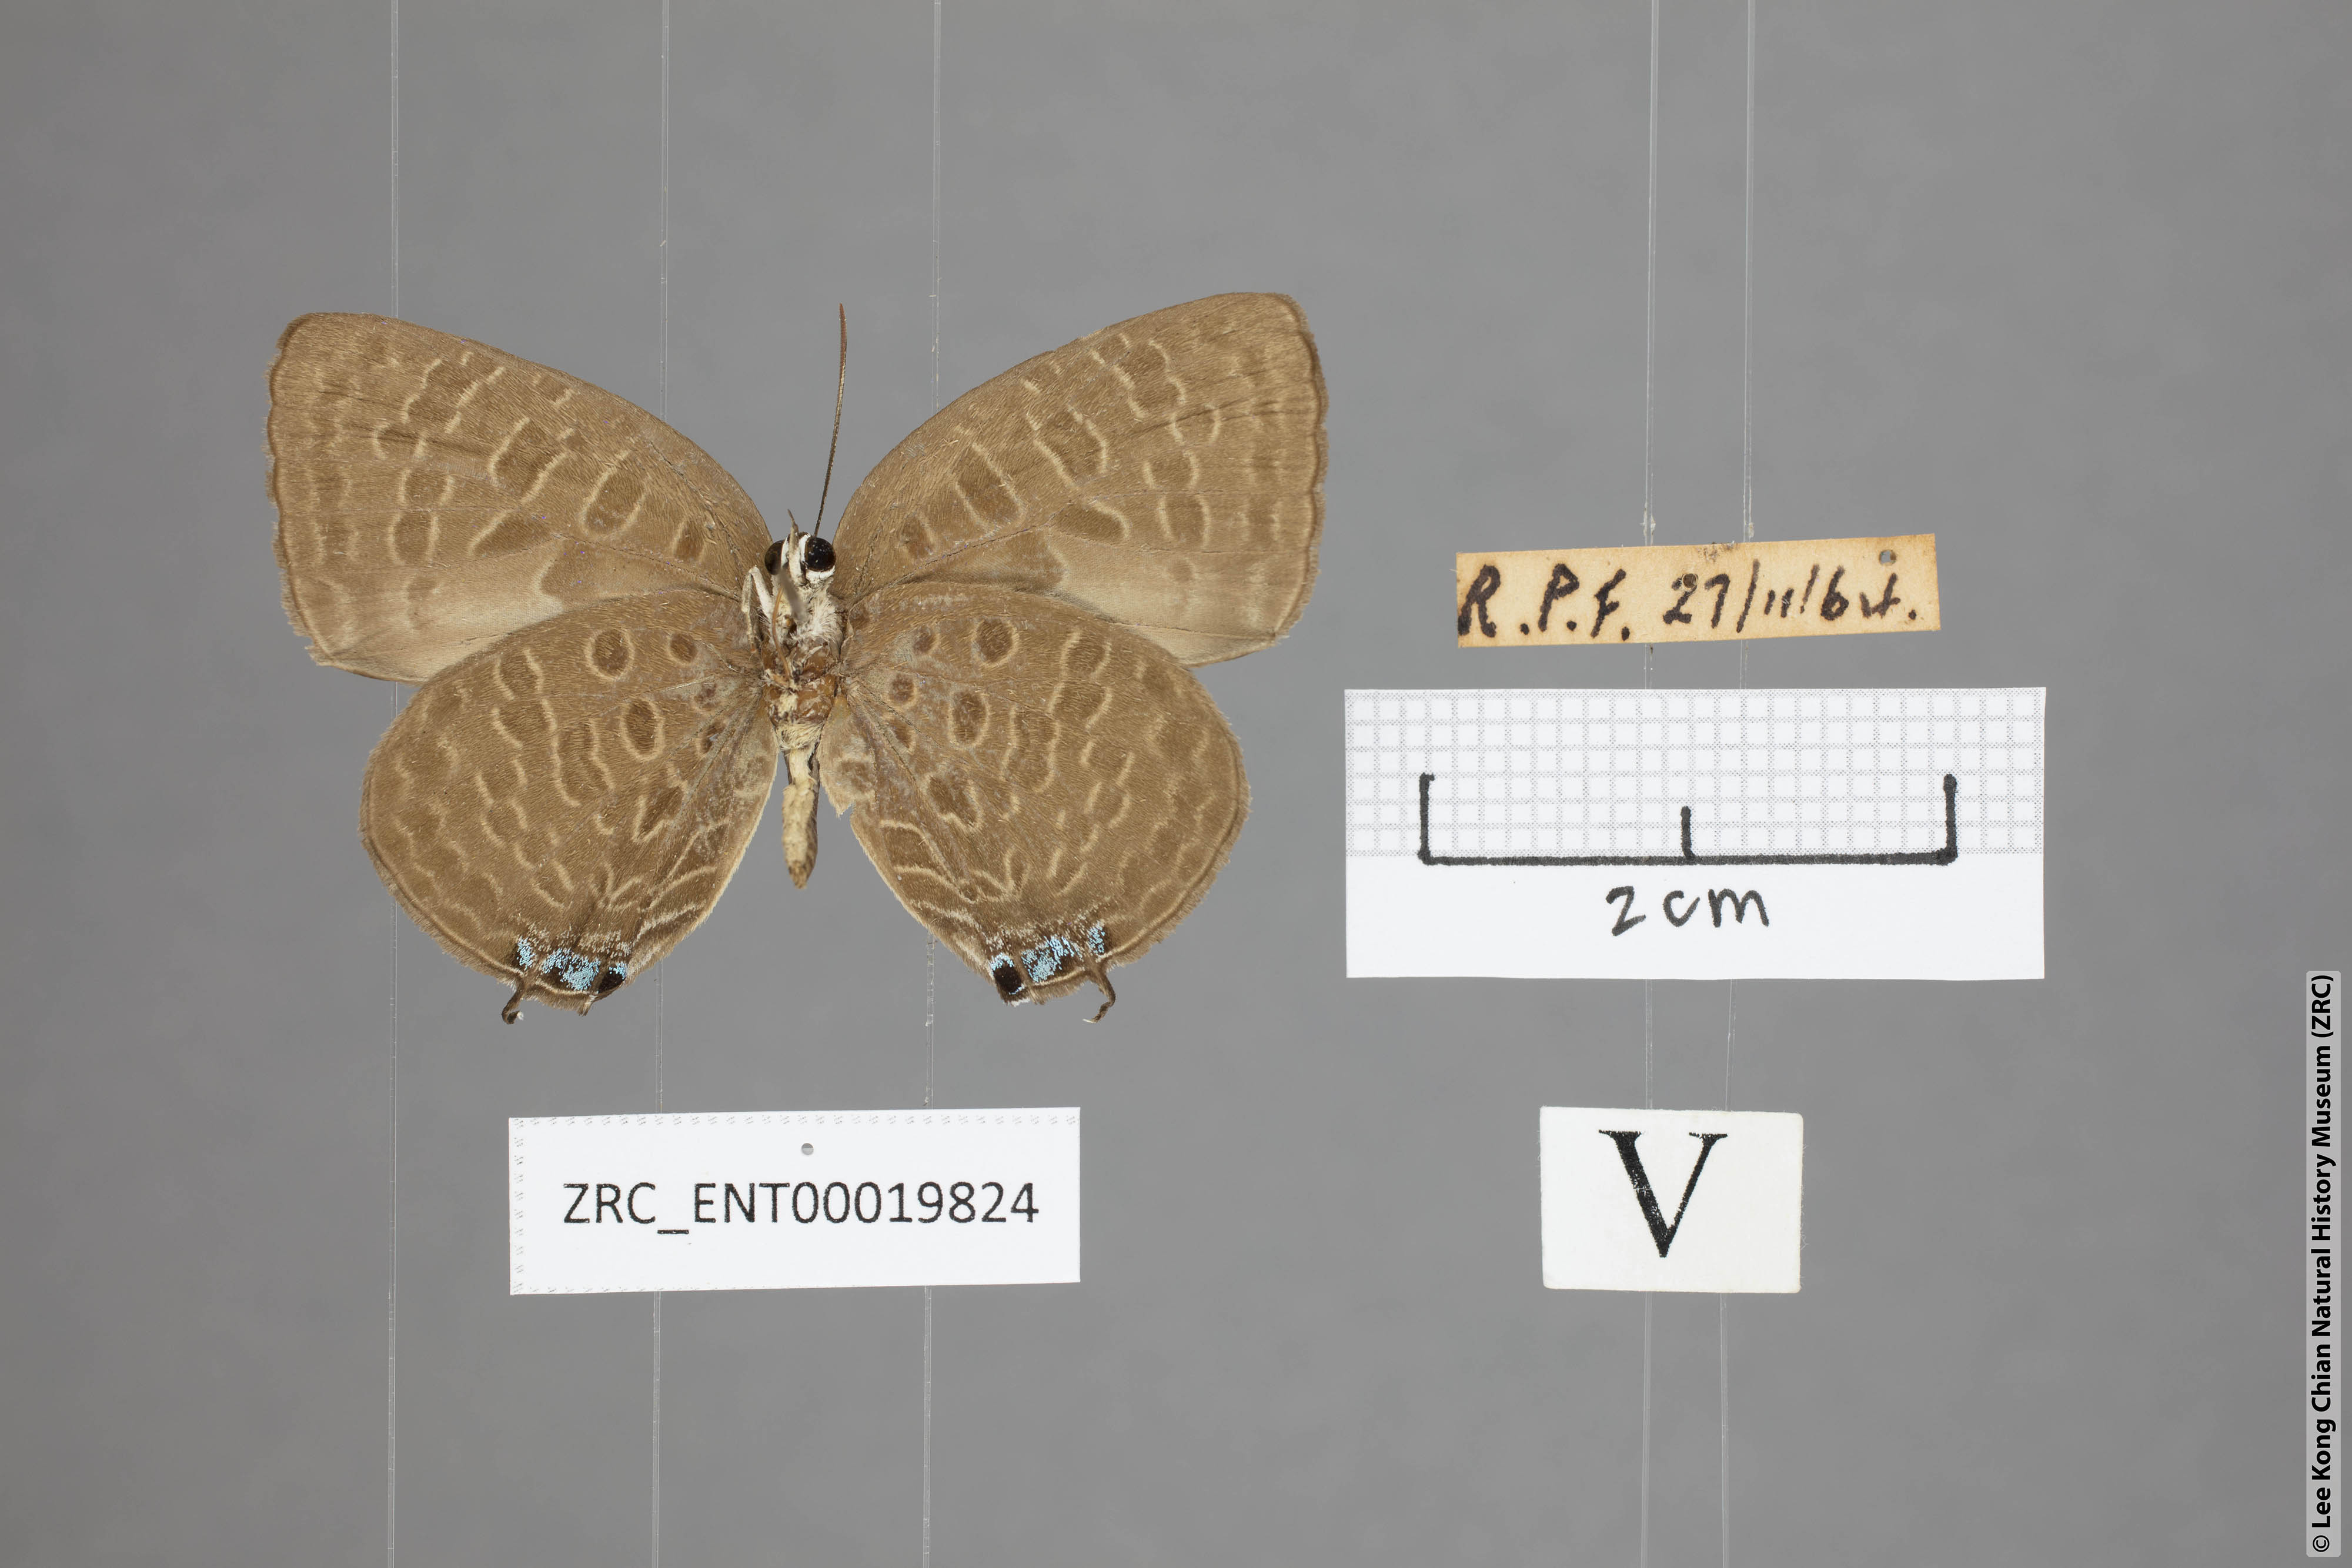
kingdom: Animalia
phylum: Arthropoda
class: Insecta
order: Lepidoptera
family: Lycaenidae
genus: Arhopala
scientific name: Arhopala pseudomuta
